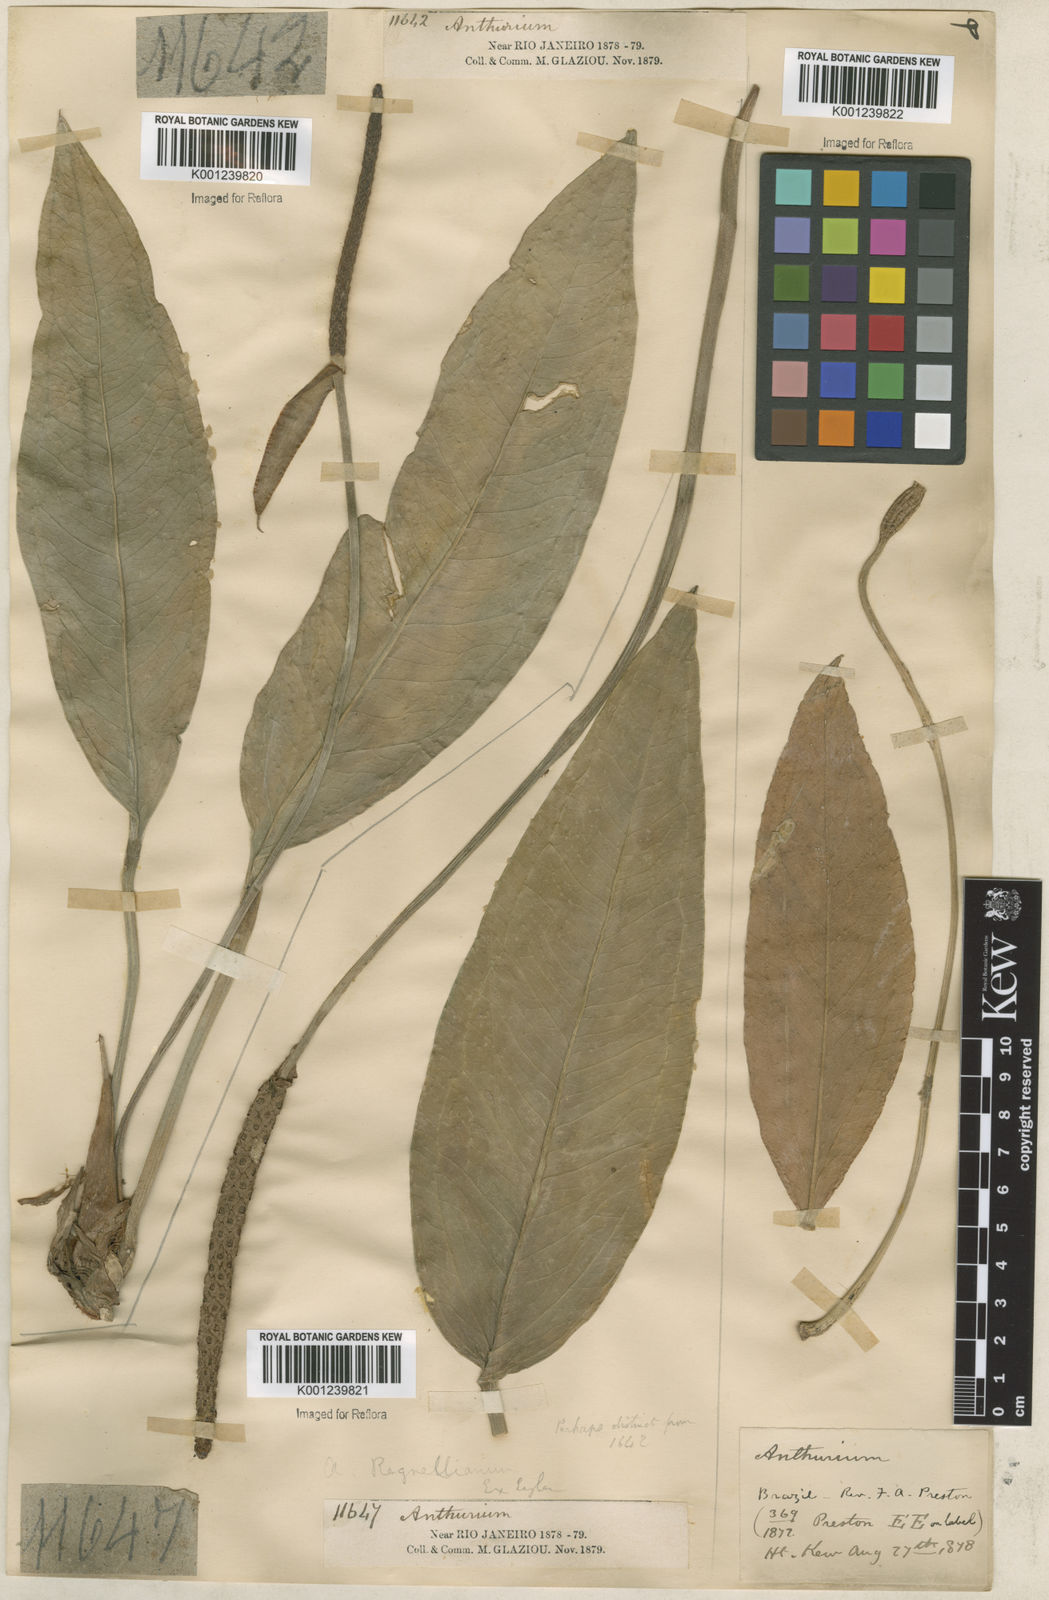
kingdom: Plantae
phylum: Tracheophyta
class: Liliopsida
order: Alismatales
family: Araceae
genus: Anthurium
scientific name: Anthurium
